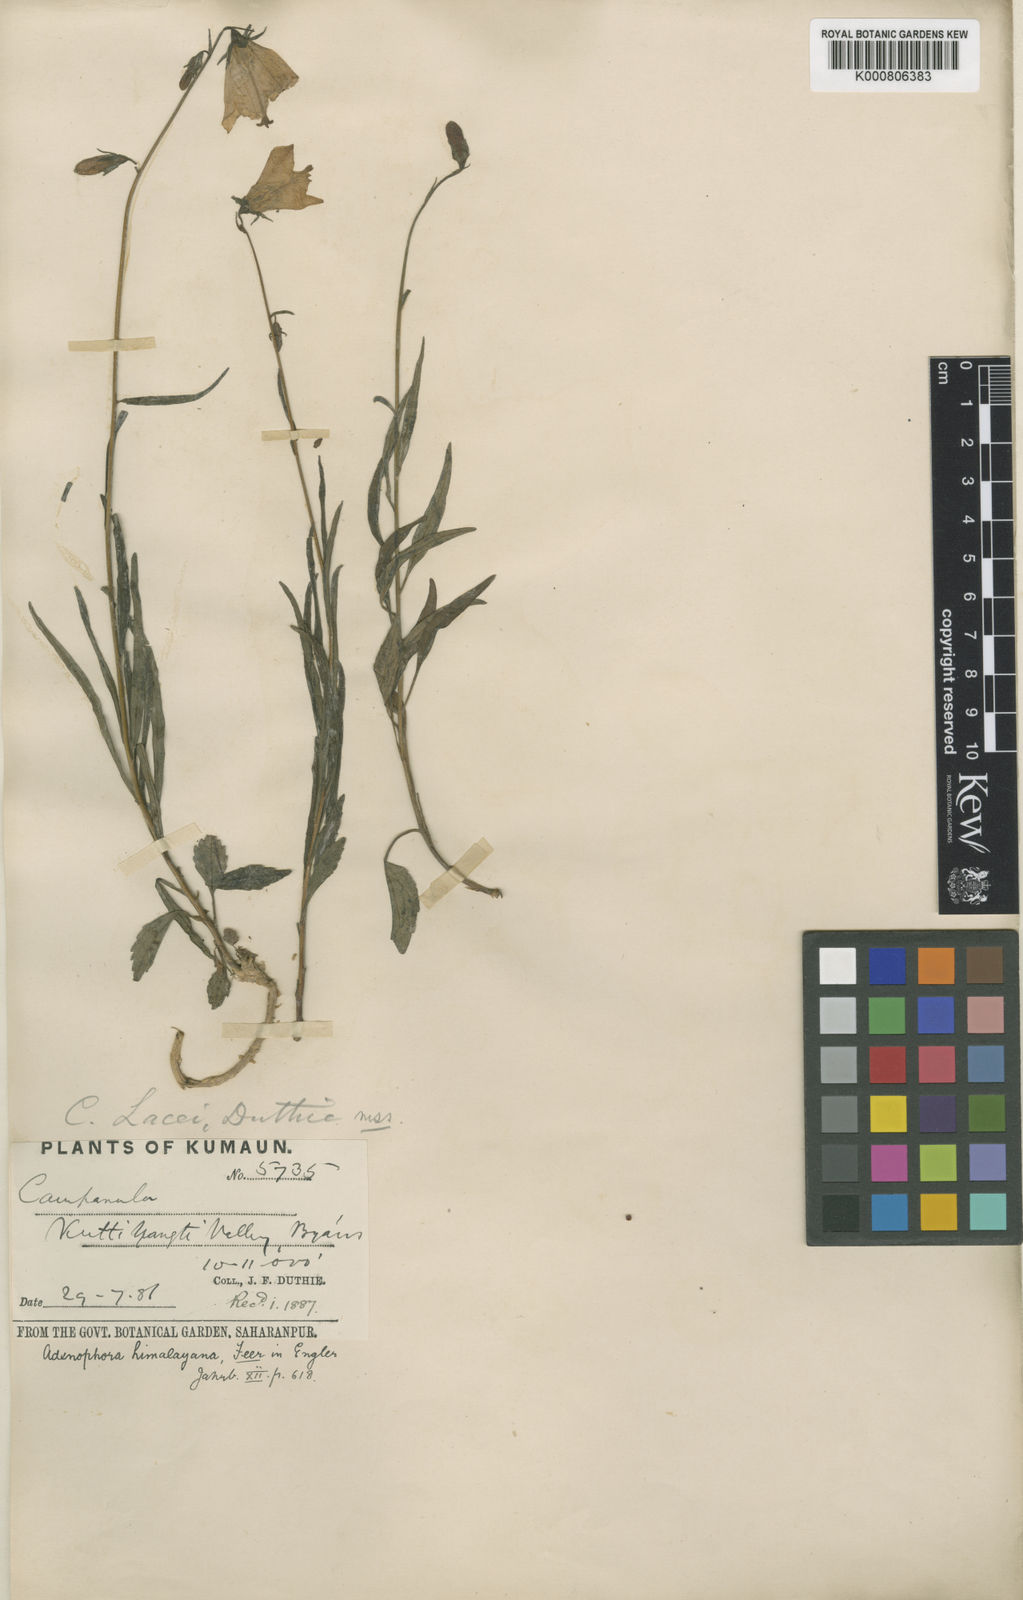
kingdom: Plantae
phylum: Tracheophyta
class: Magnoliopsida
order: Asterales
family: Campanulaceae
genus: Adenophora
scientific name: Adenophora himalayana
